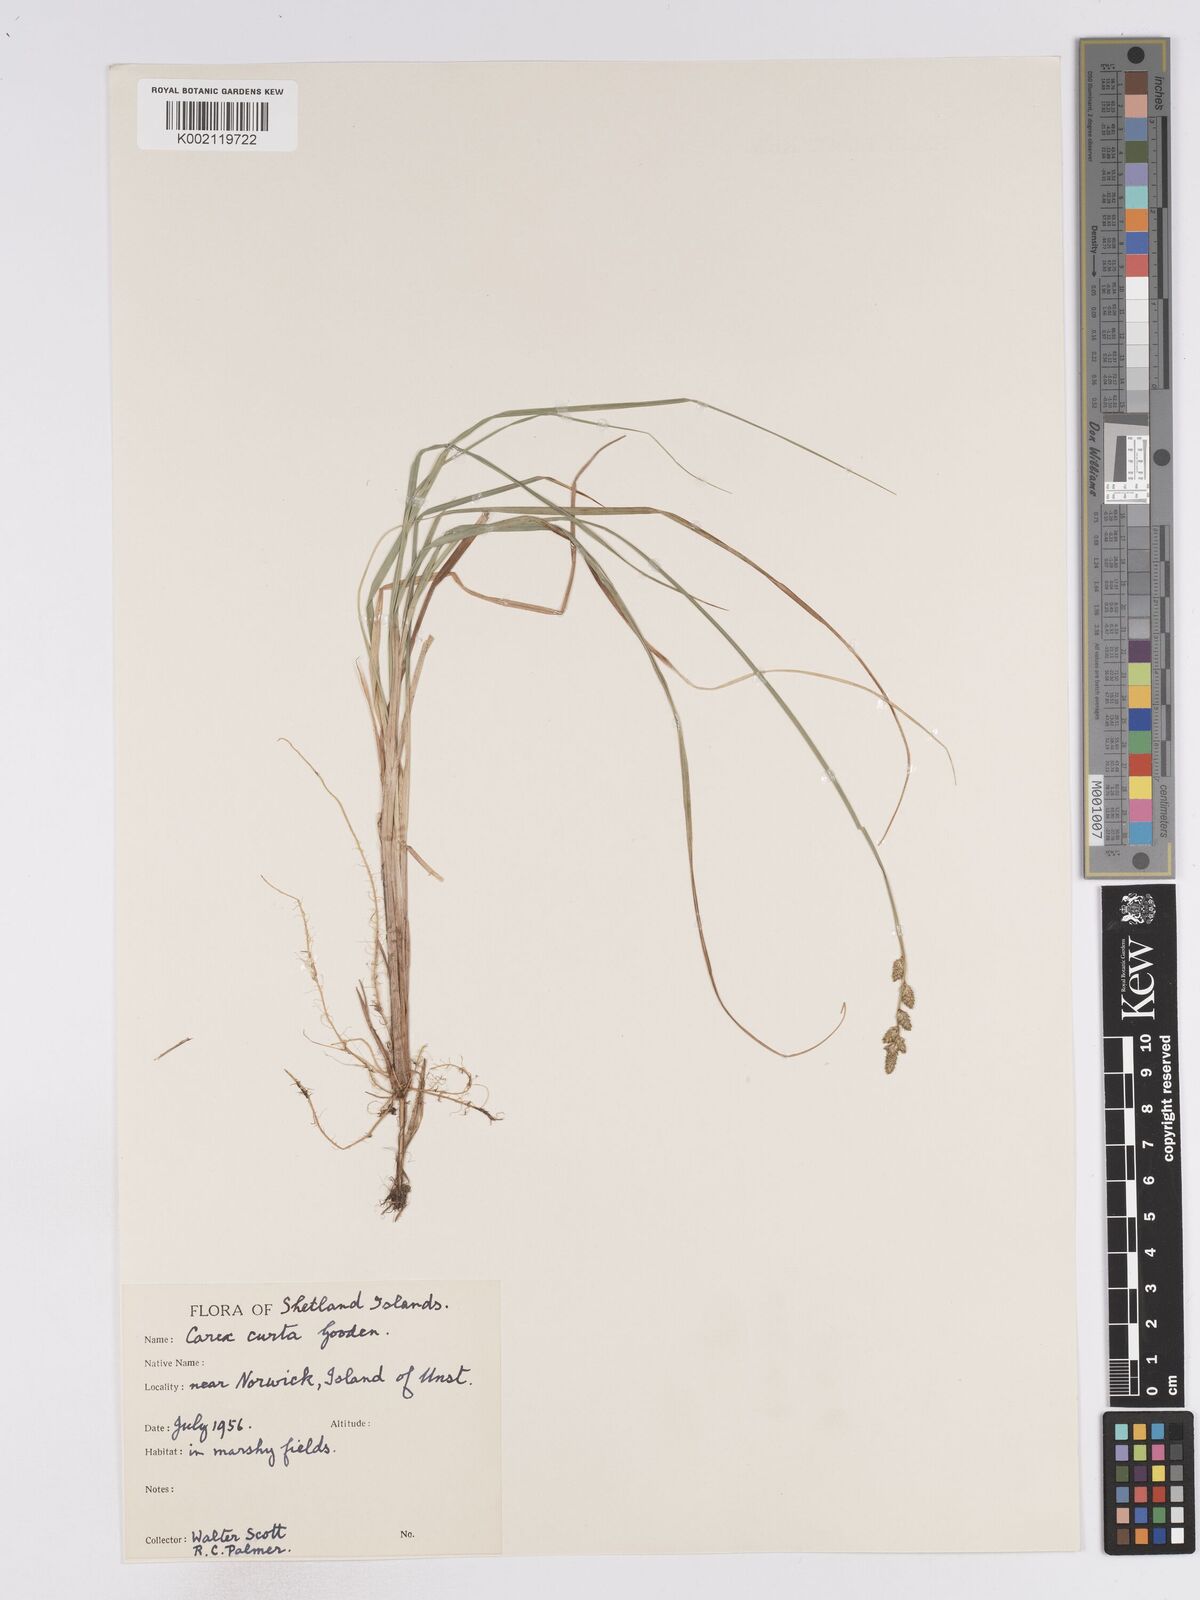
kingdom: Plantae
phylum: Tracheophyta
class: Liliopsida
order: Poales
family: Cyperaceae
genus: Carex
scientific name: Carex curta
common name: White sedge
